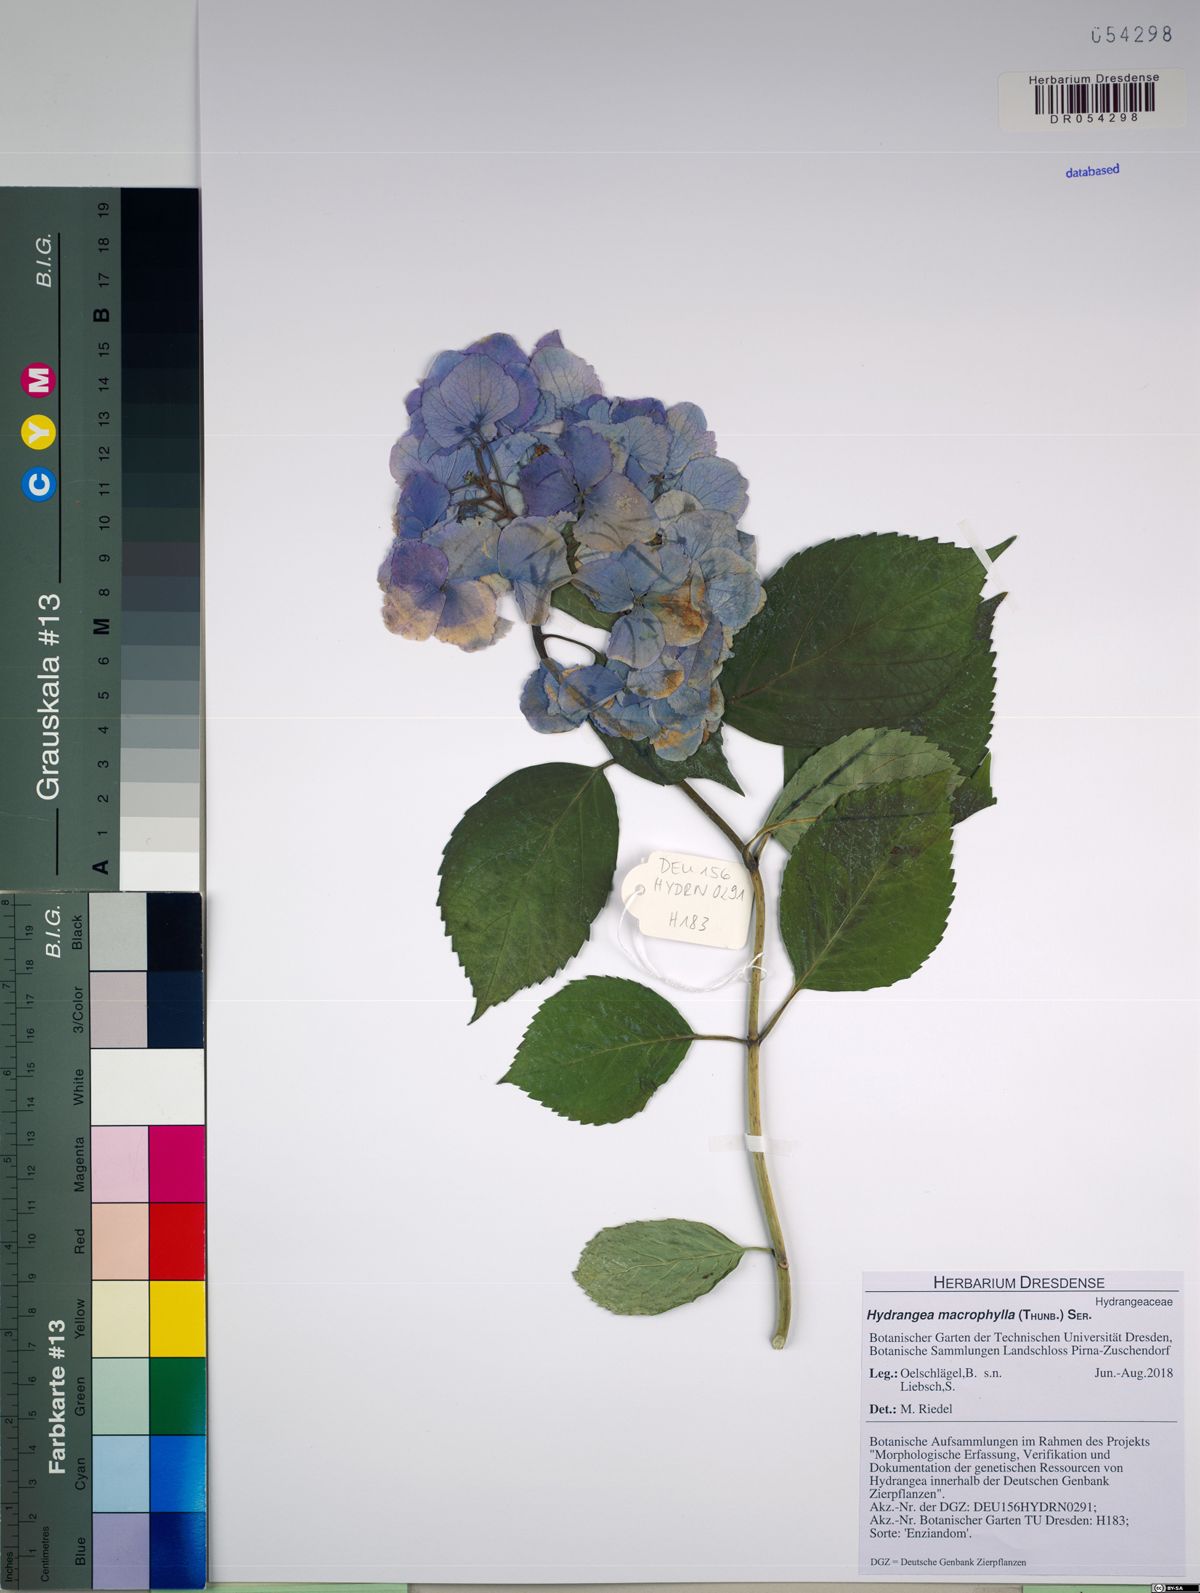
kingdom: Plantae
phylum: Tracheophyta
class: Magnoliopsida
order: Cornales
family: Hydrangeaceae
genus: Hydrangea
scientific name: Hydrangea macrophylla
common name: Hydrangea
